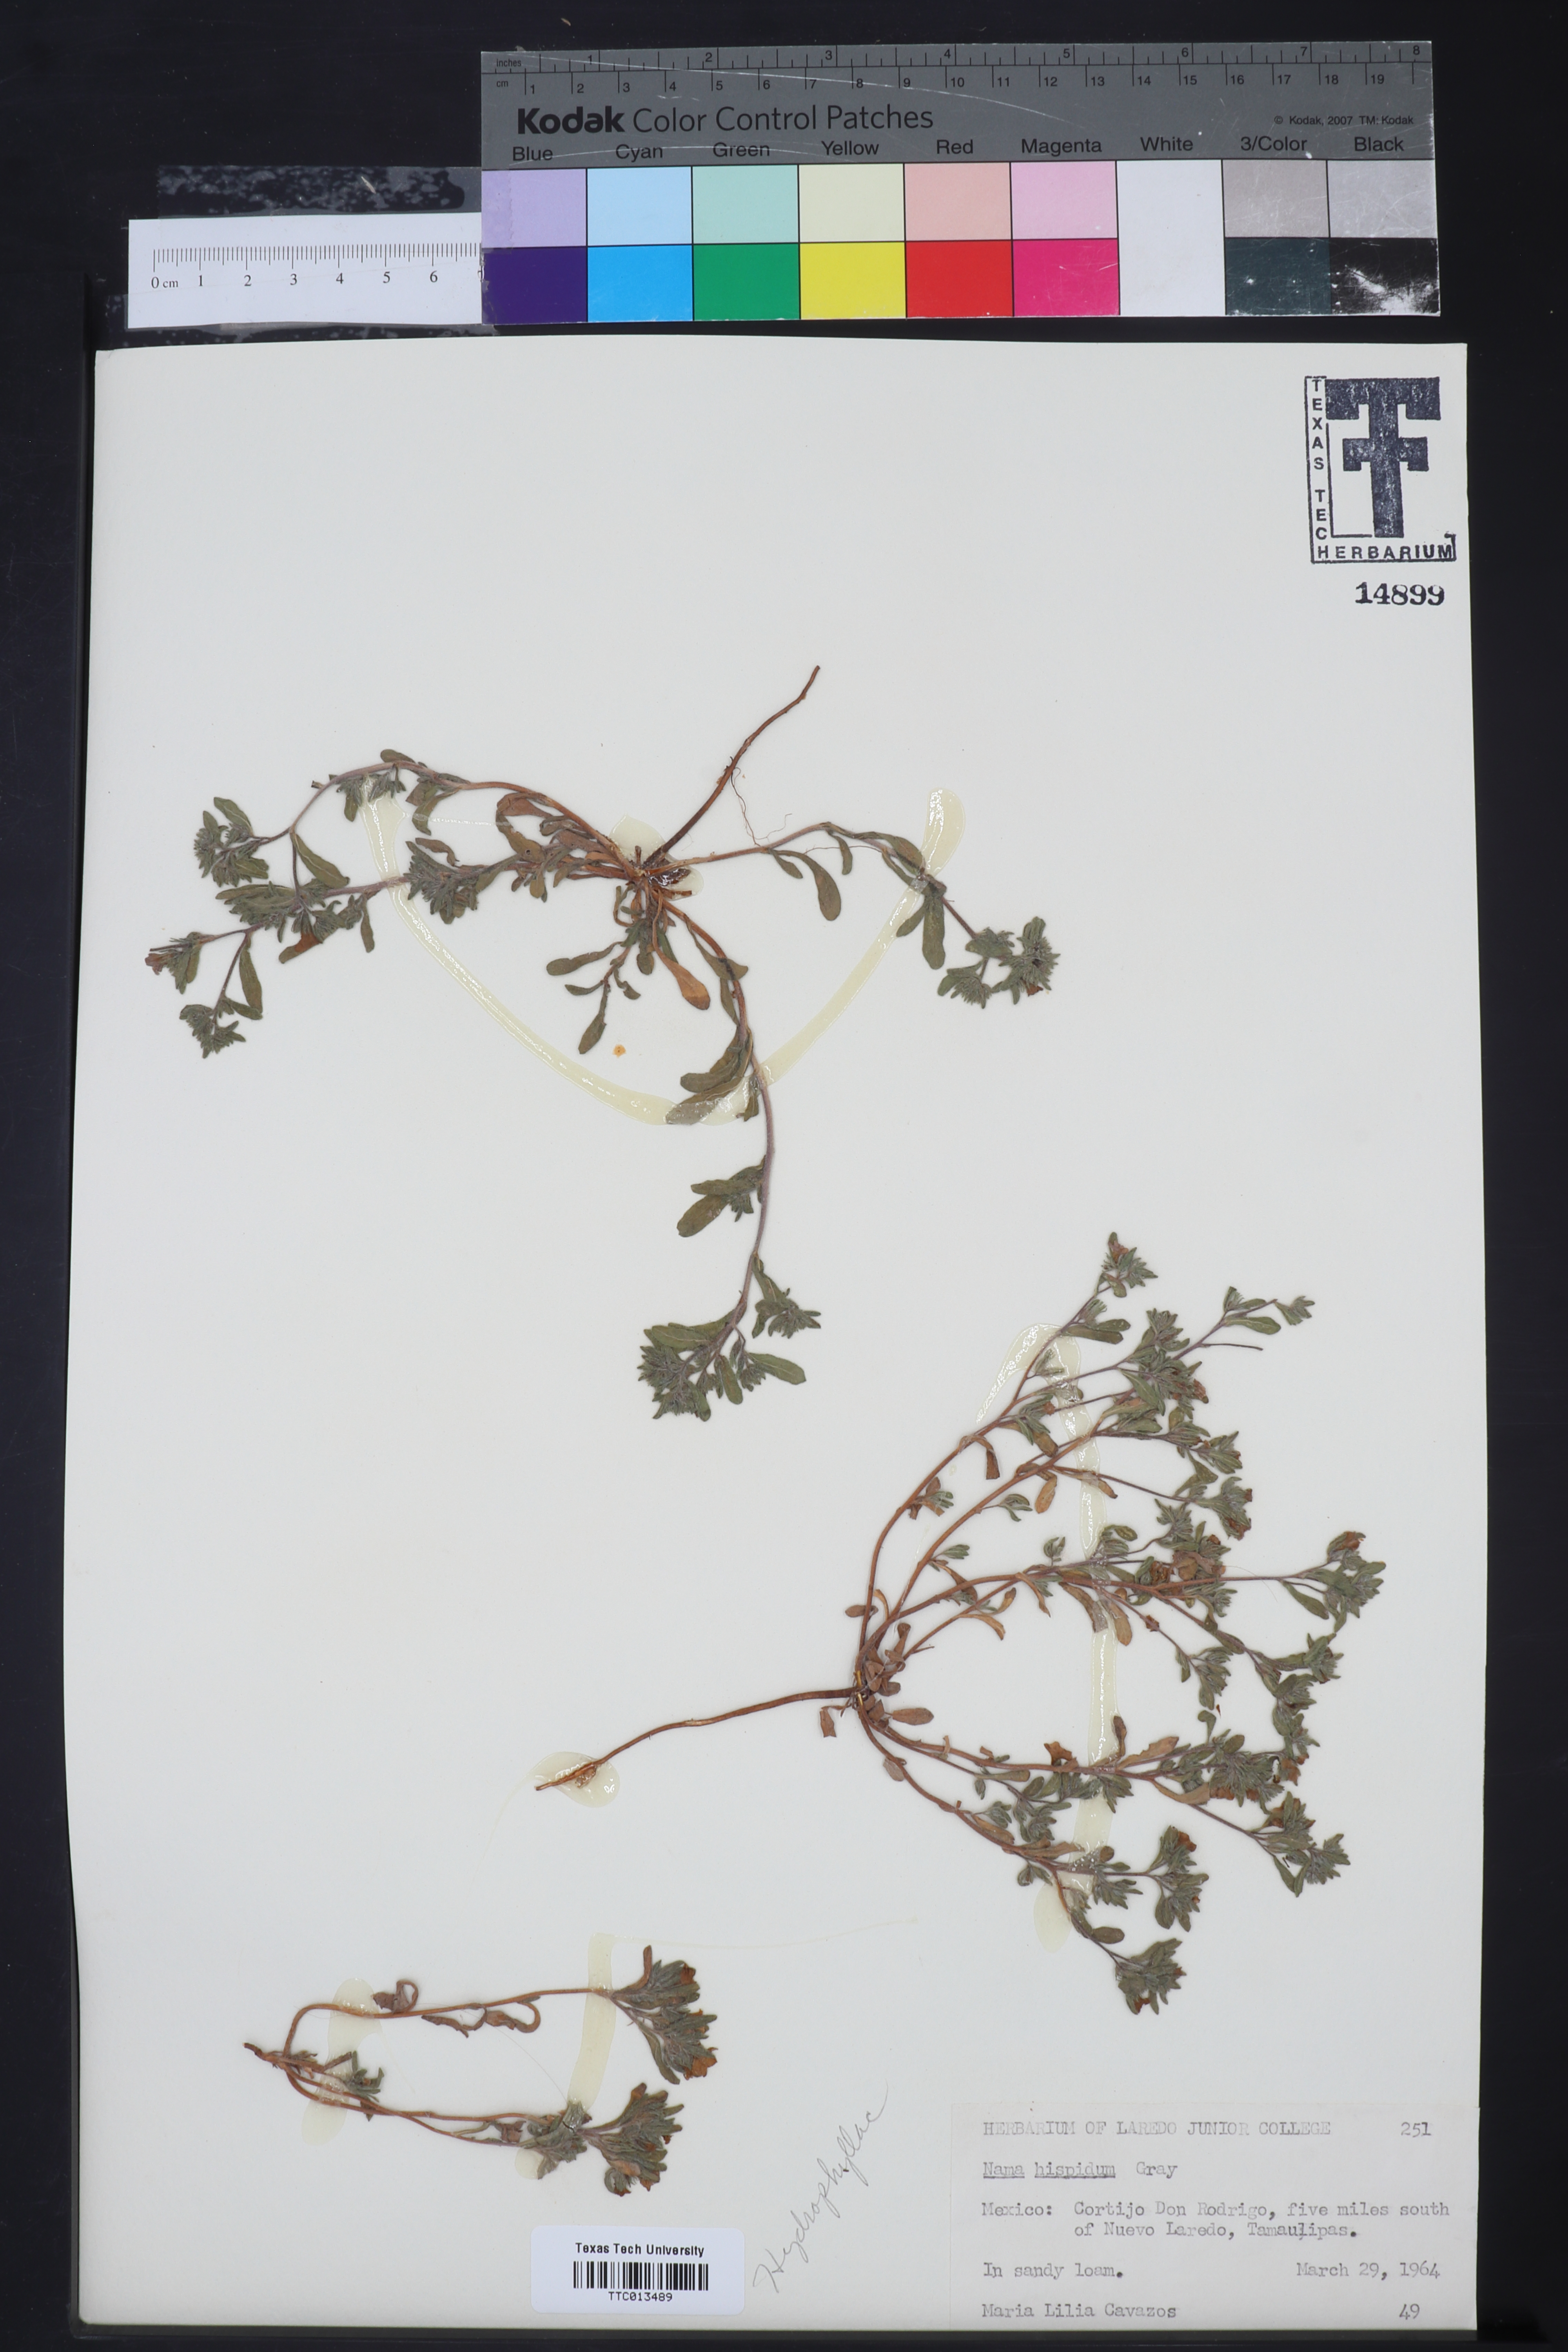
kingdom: Plantae
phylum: Tracheophyta
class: Magnoliopsida
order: Boraginales
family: Namaceae
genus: Nama
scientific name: Nama hispida
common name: Bristly nama
